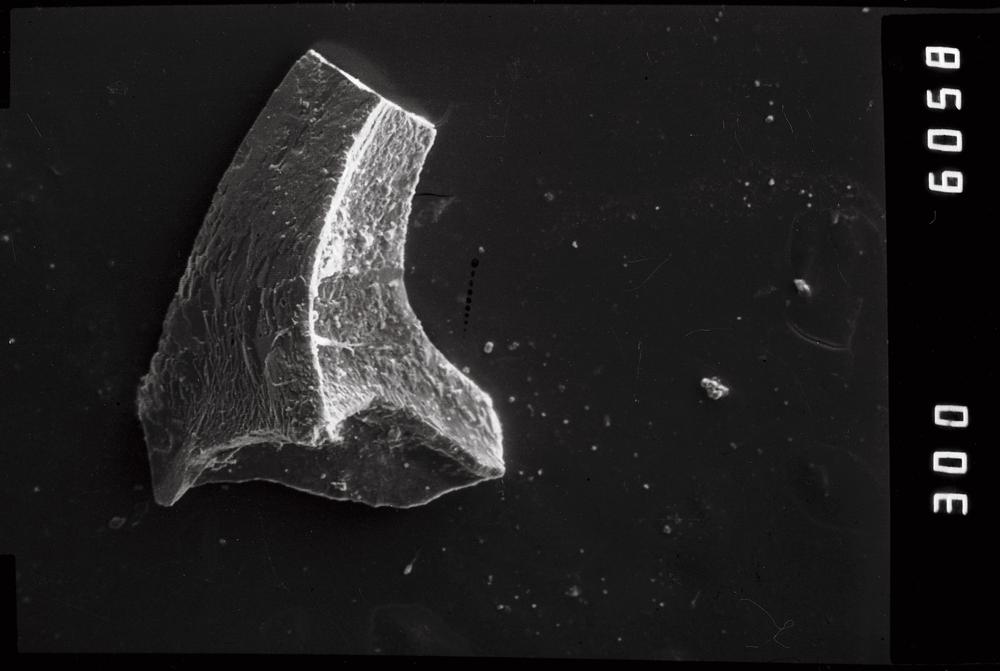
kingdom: Animalia
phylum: Chordata
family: Acodontidae
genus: Acodus
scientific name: Acodus deltatus
